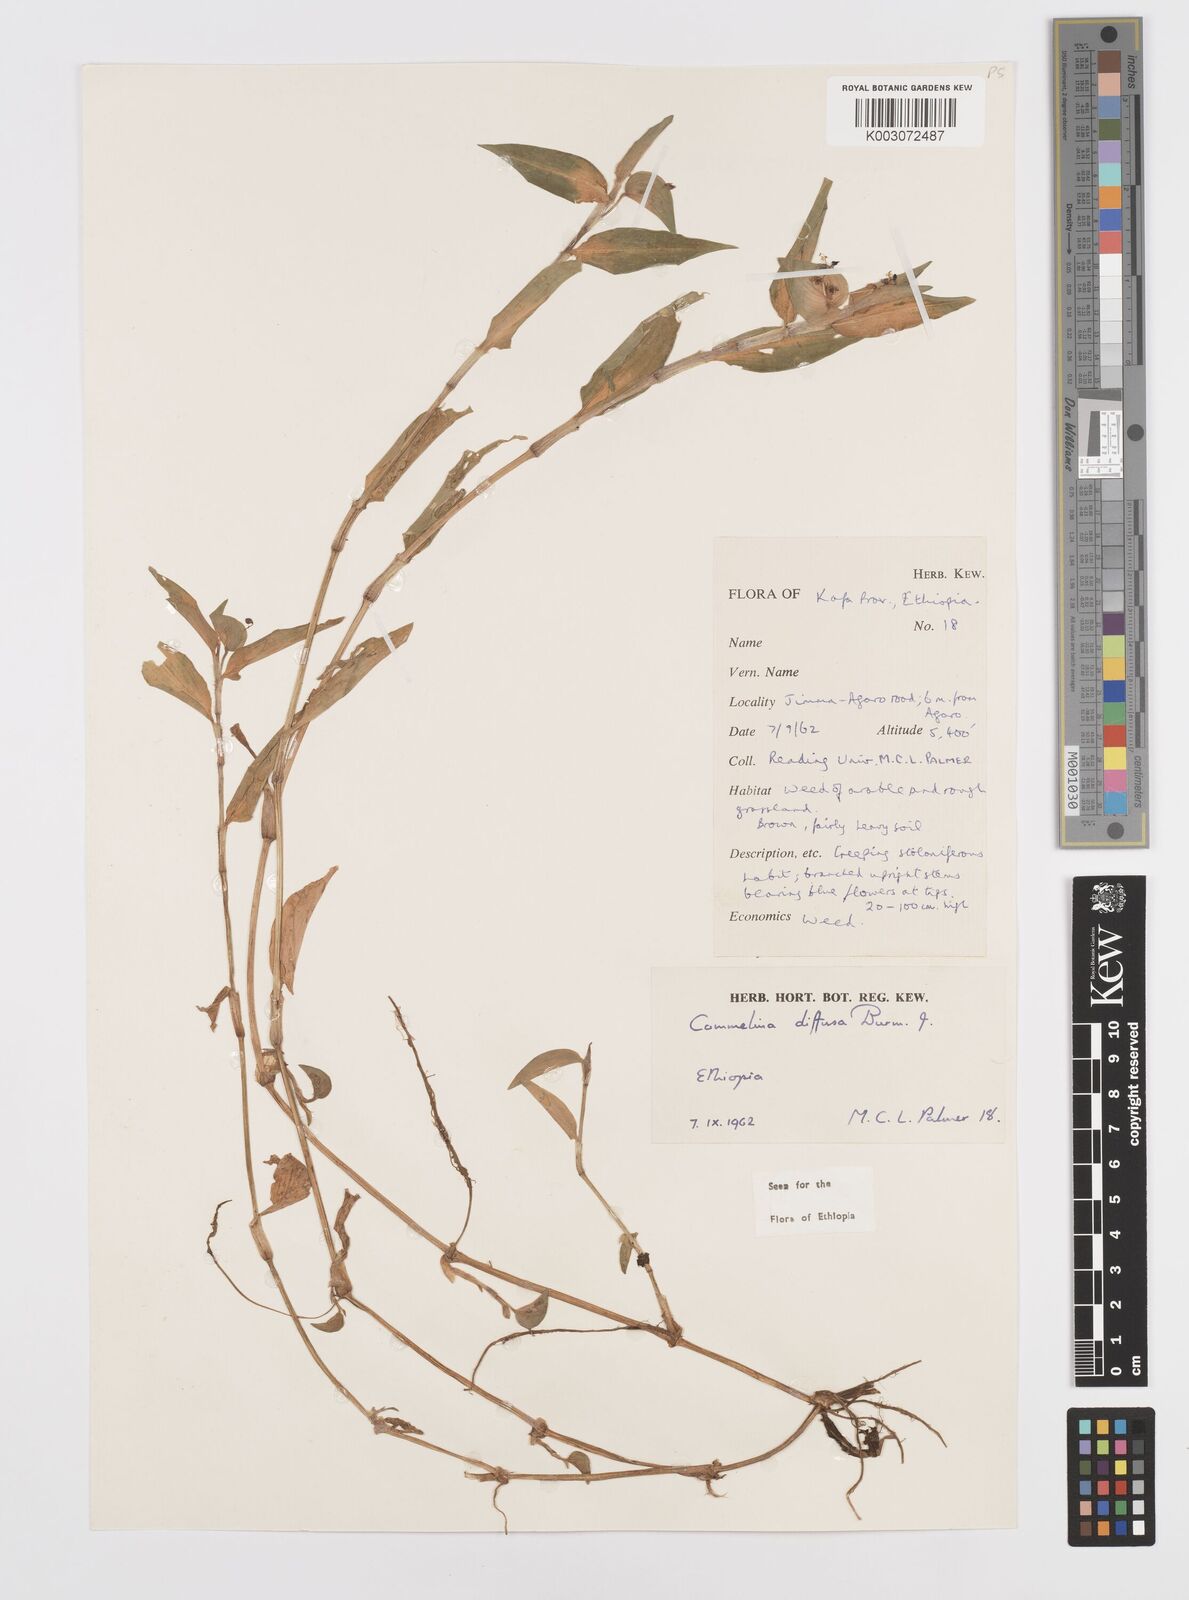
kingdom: Plantae
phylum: Tracheophyta
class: Liliopsida
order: Commelinales
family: Commelinaceae
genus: Commelina
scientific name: Commelina diffusa
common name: Climbing dayflower
